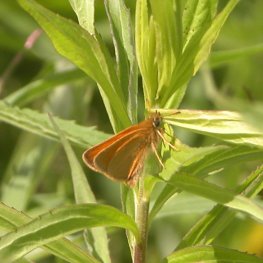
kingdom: Animalia
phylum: Arthropoda
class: Insecta
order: Lepidoptera
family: Hesperiidae
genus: Thymelicus
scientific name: Thymelicus lineola
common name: European Skipper
